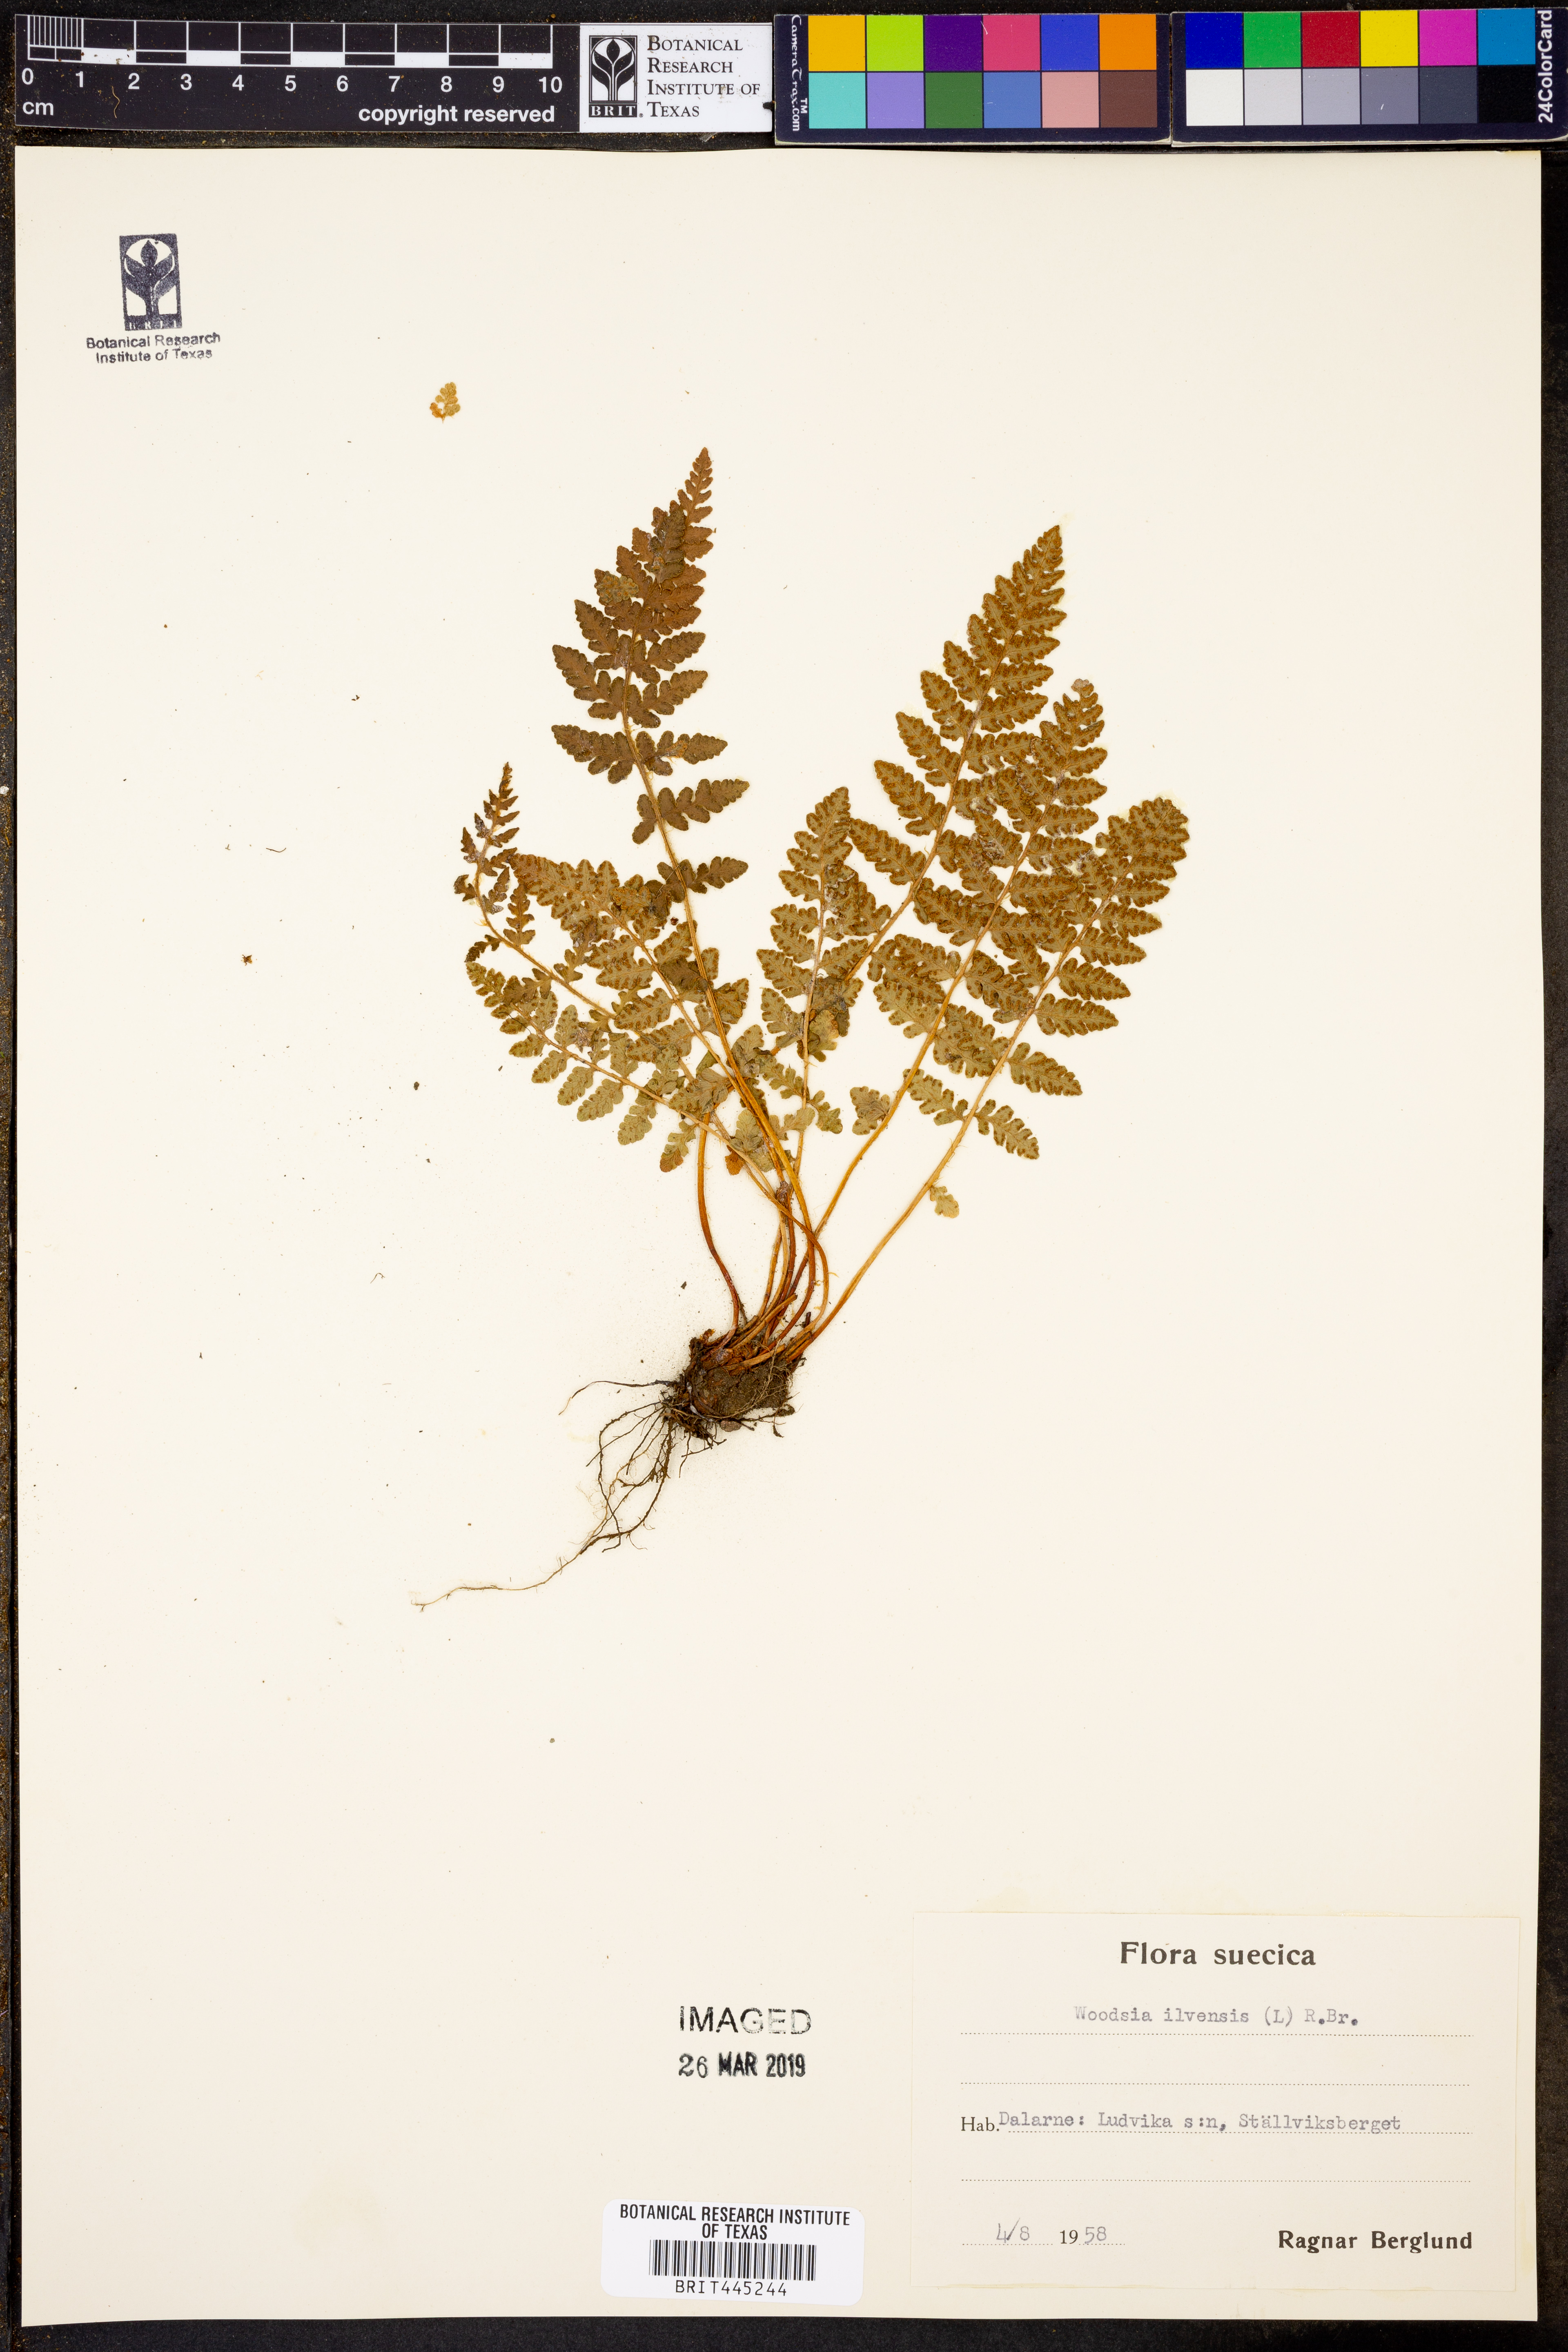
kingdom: Plantae
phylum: Tracheophyta
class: Polypodiopsida
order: Polypodiales
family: Woodsiaceae
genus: Woodsia
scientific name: Woodsia ilvensis
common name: Fragrant woodsia
